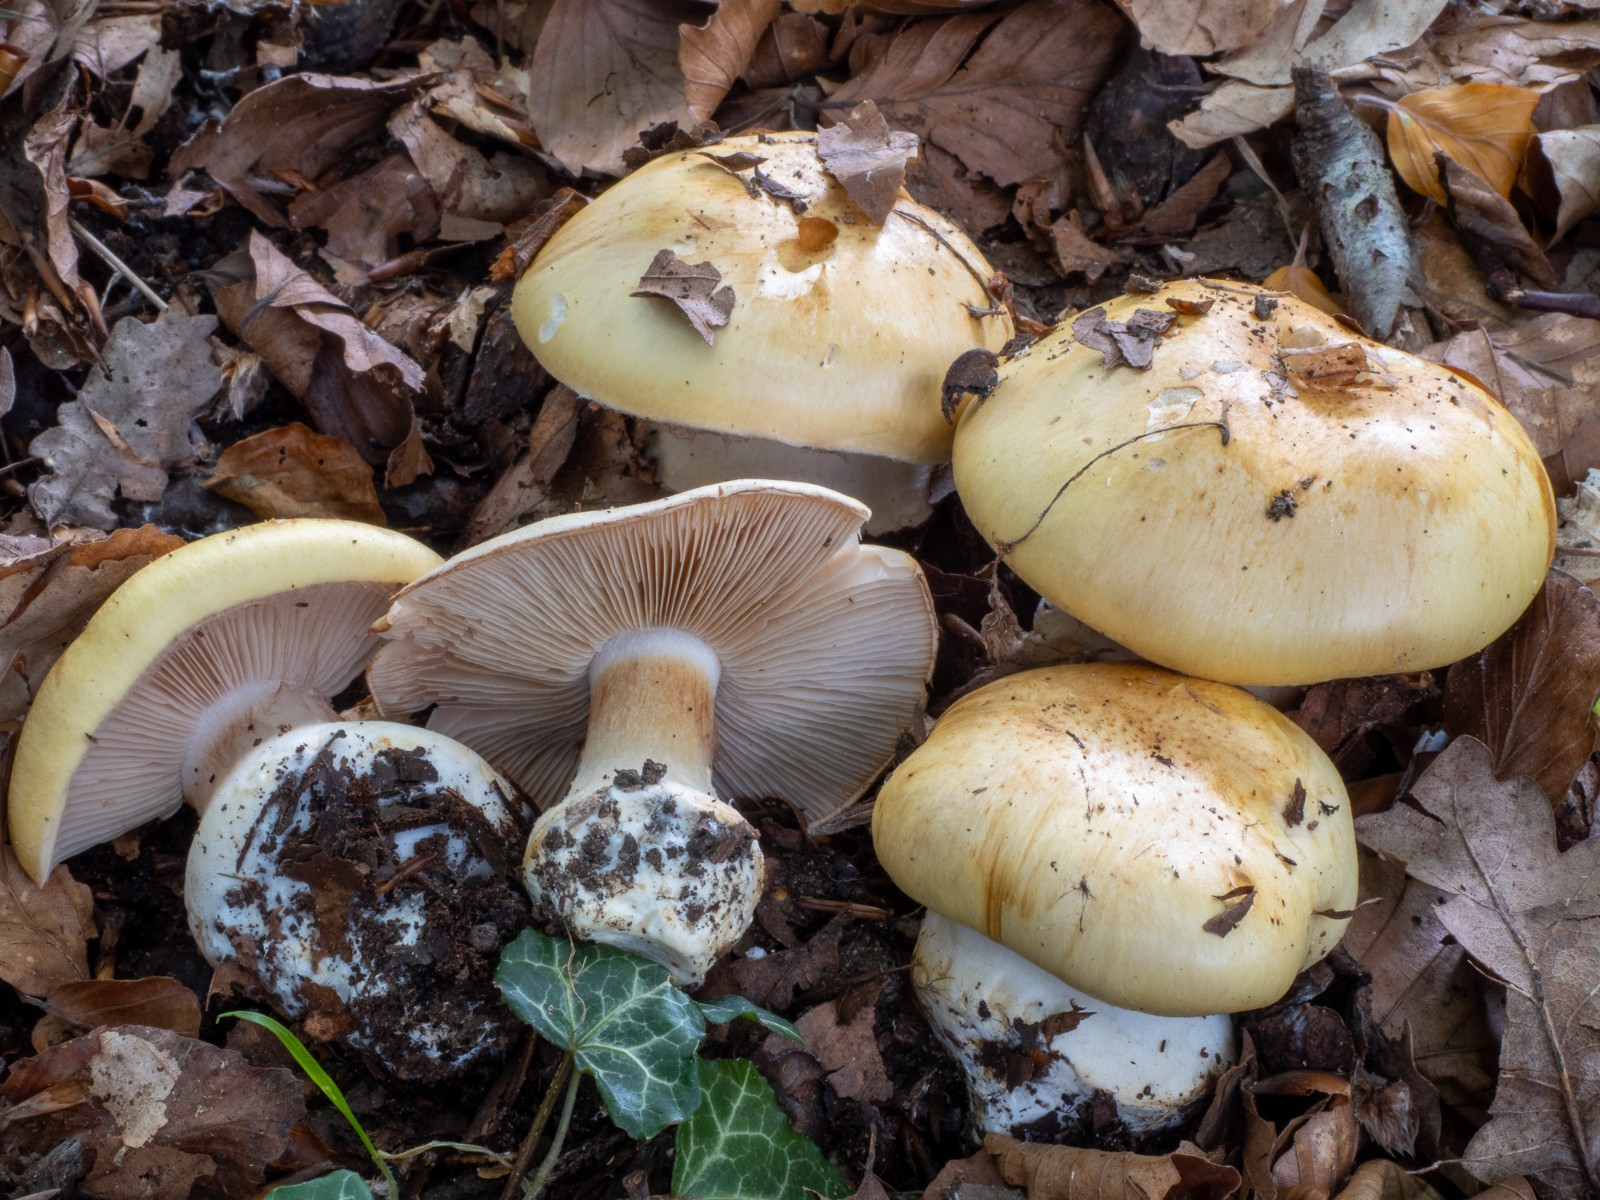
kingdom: Fungi
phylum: Basidiomycota
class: Agaricomycetes
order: Agaricales
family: Cortinariaceae
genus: Phlegmacium
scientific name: Phlegmacium caesiocortinatum
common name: rundsporet slørhat
